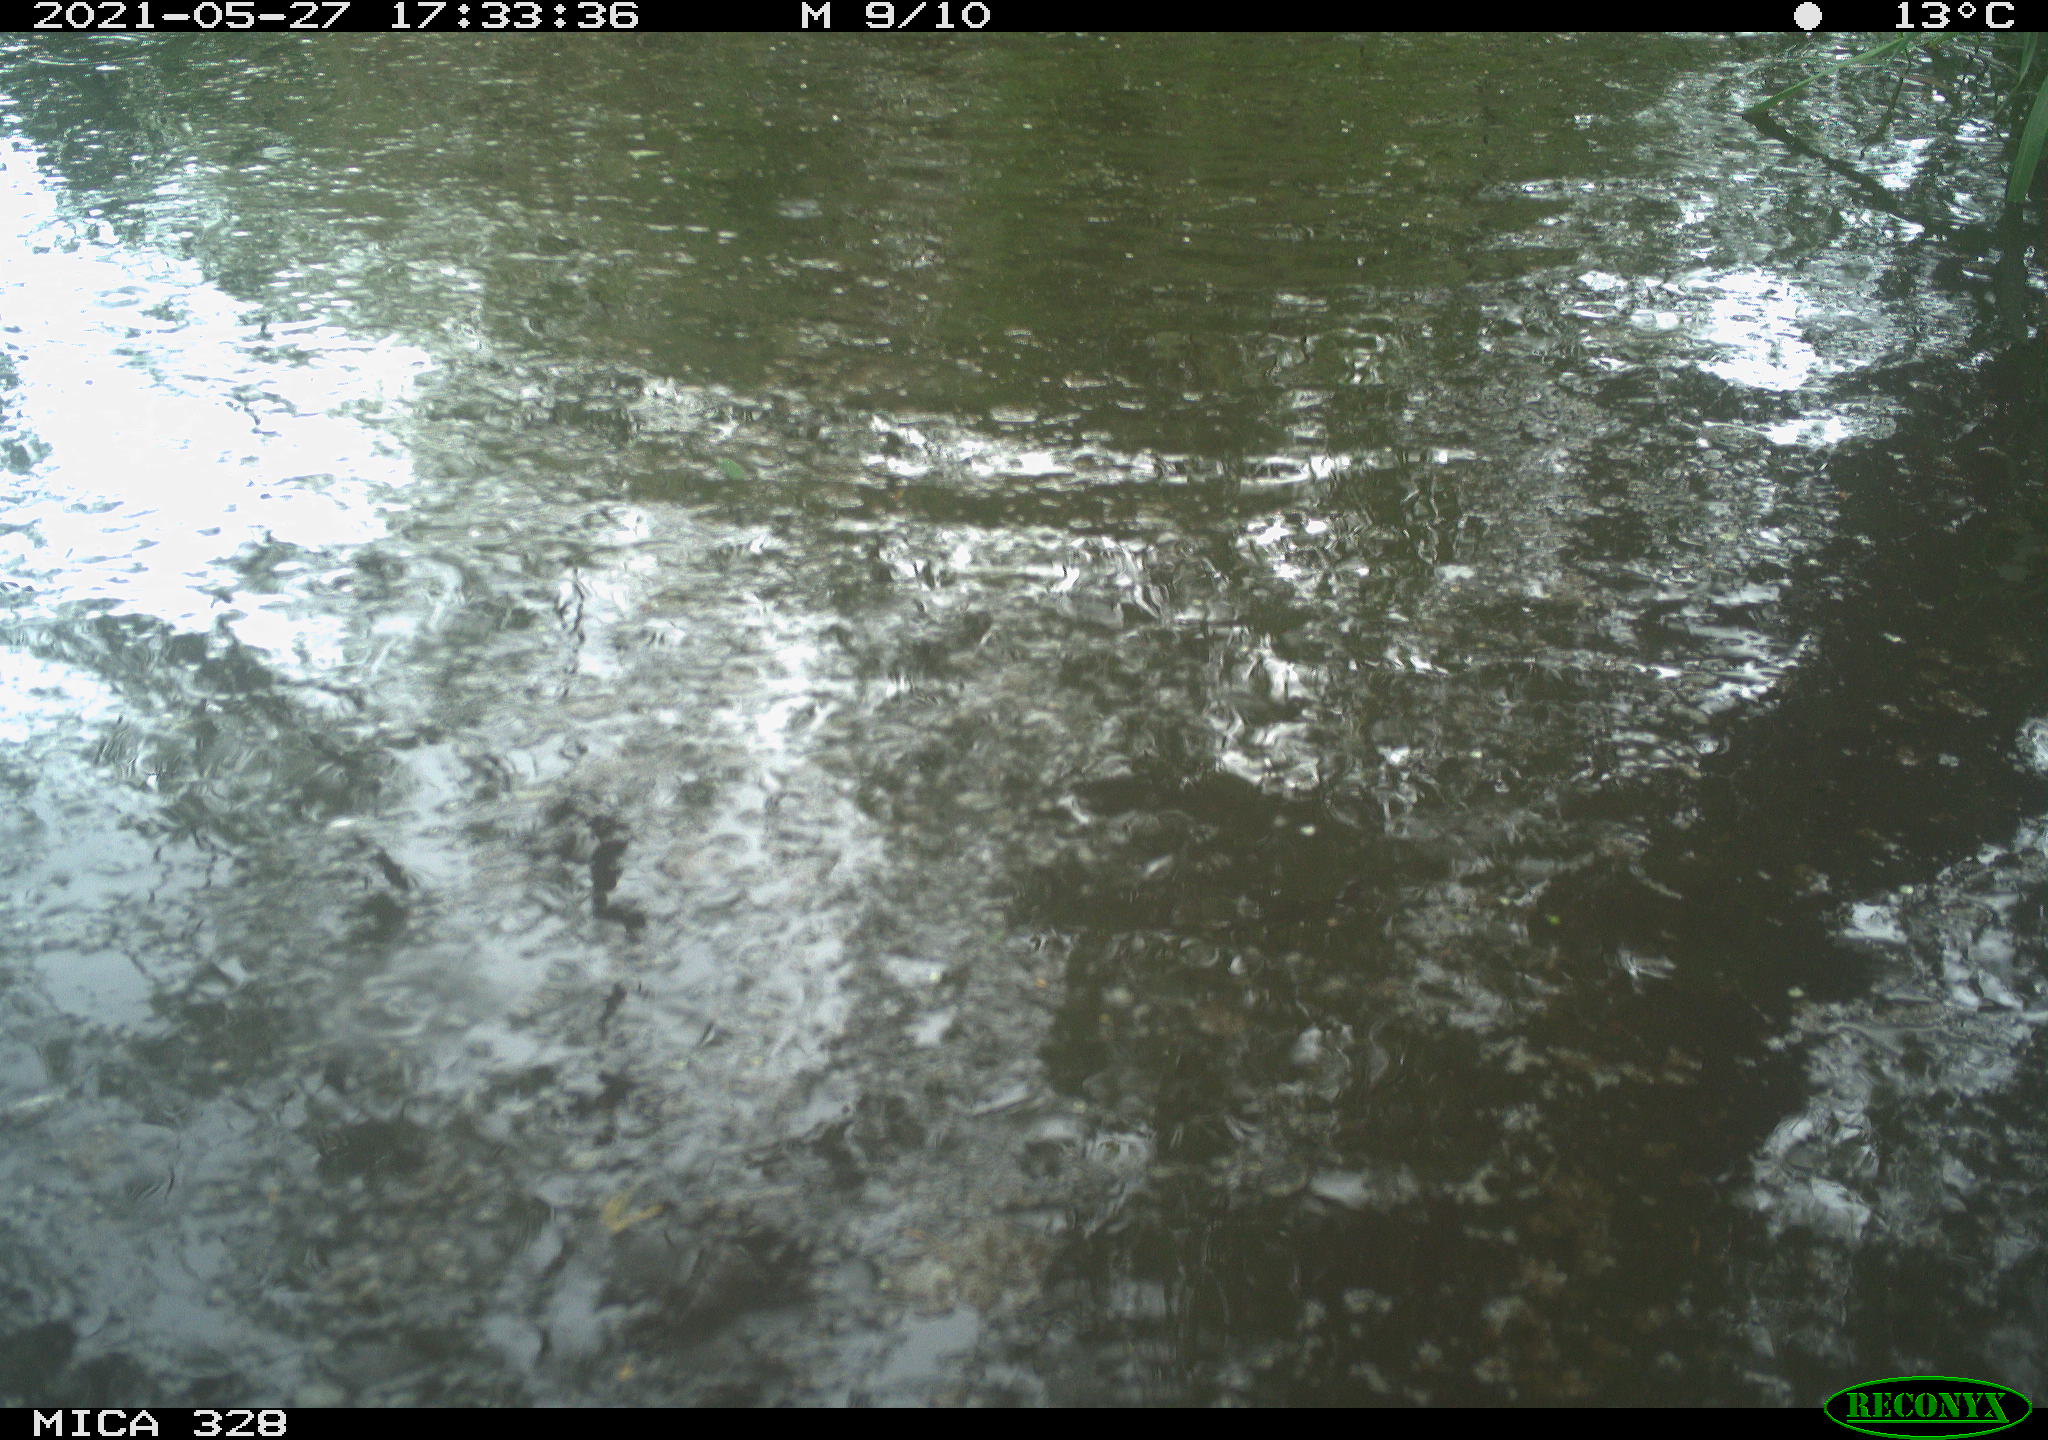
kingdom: Animalia
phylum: Chordata
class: Mammalia
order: Rodentia
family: Cricetidae
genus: Ondatra
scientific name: Ondatra zibethicus
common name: Muskrat
